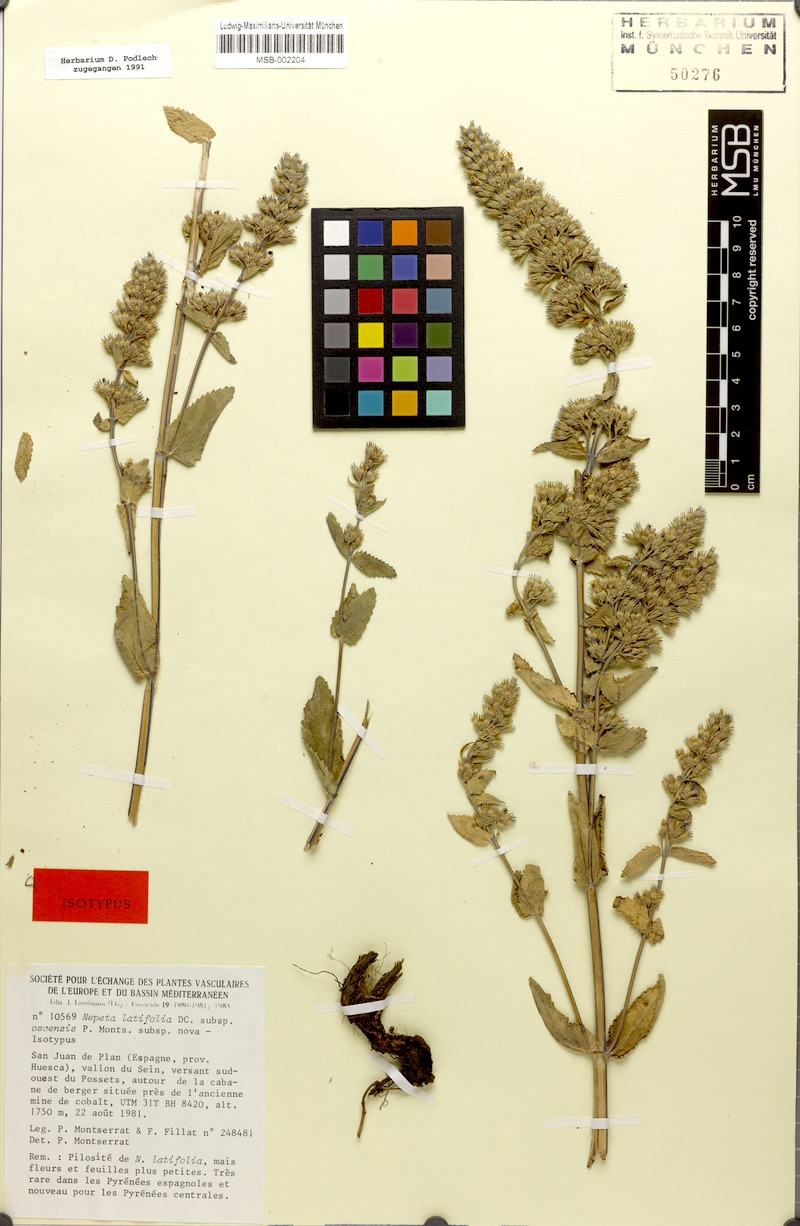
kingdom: Plantae
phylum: Tracheophyta
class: Magnoliopsida
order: Lamiales
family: Lamiaceae
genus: Nepeta
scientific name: Nepeta latifolia
